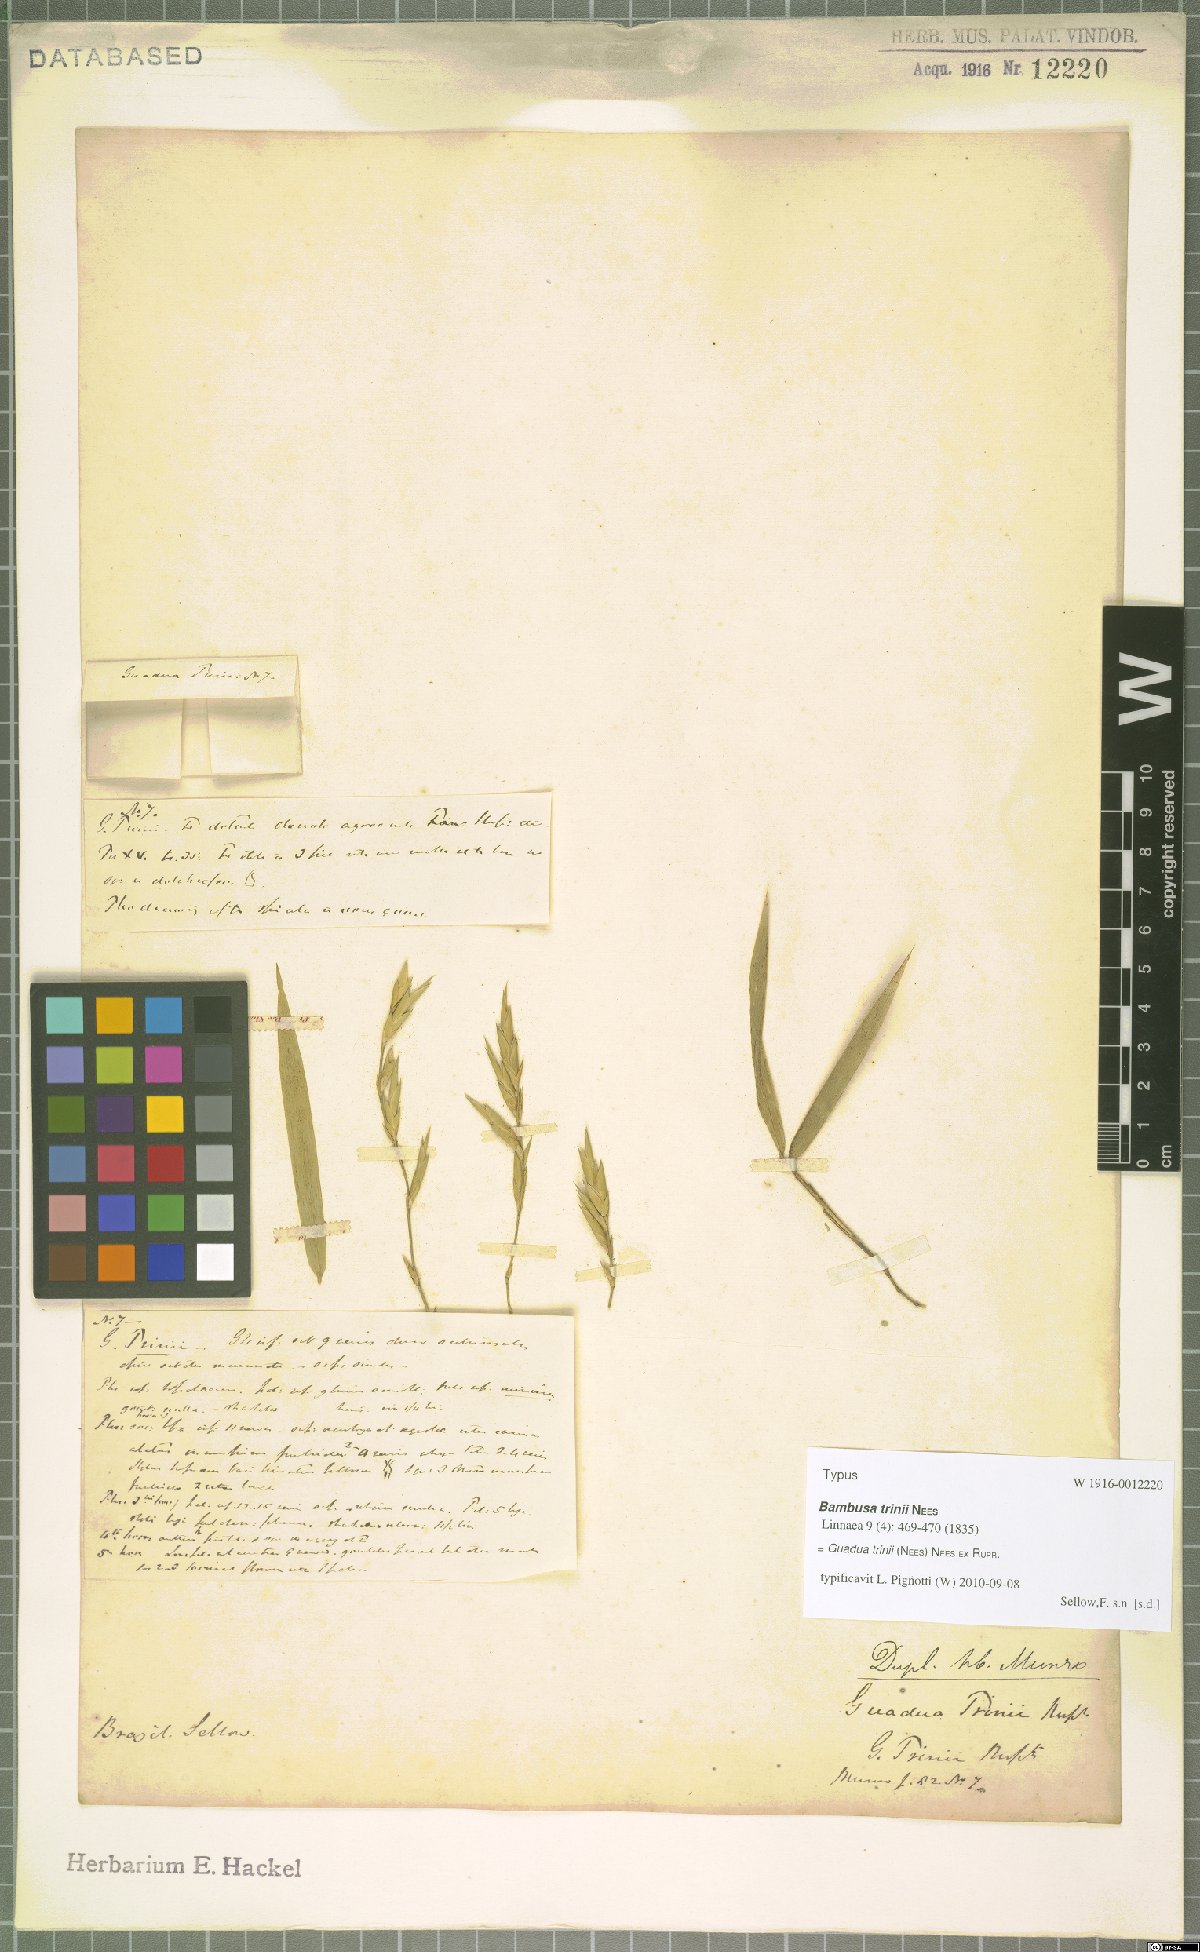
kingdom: Plantae
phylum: Tracheophyta
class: Liliopsida
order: Poales
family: Poaceae
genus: Guadua
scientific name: Guadua trinii
